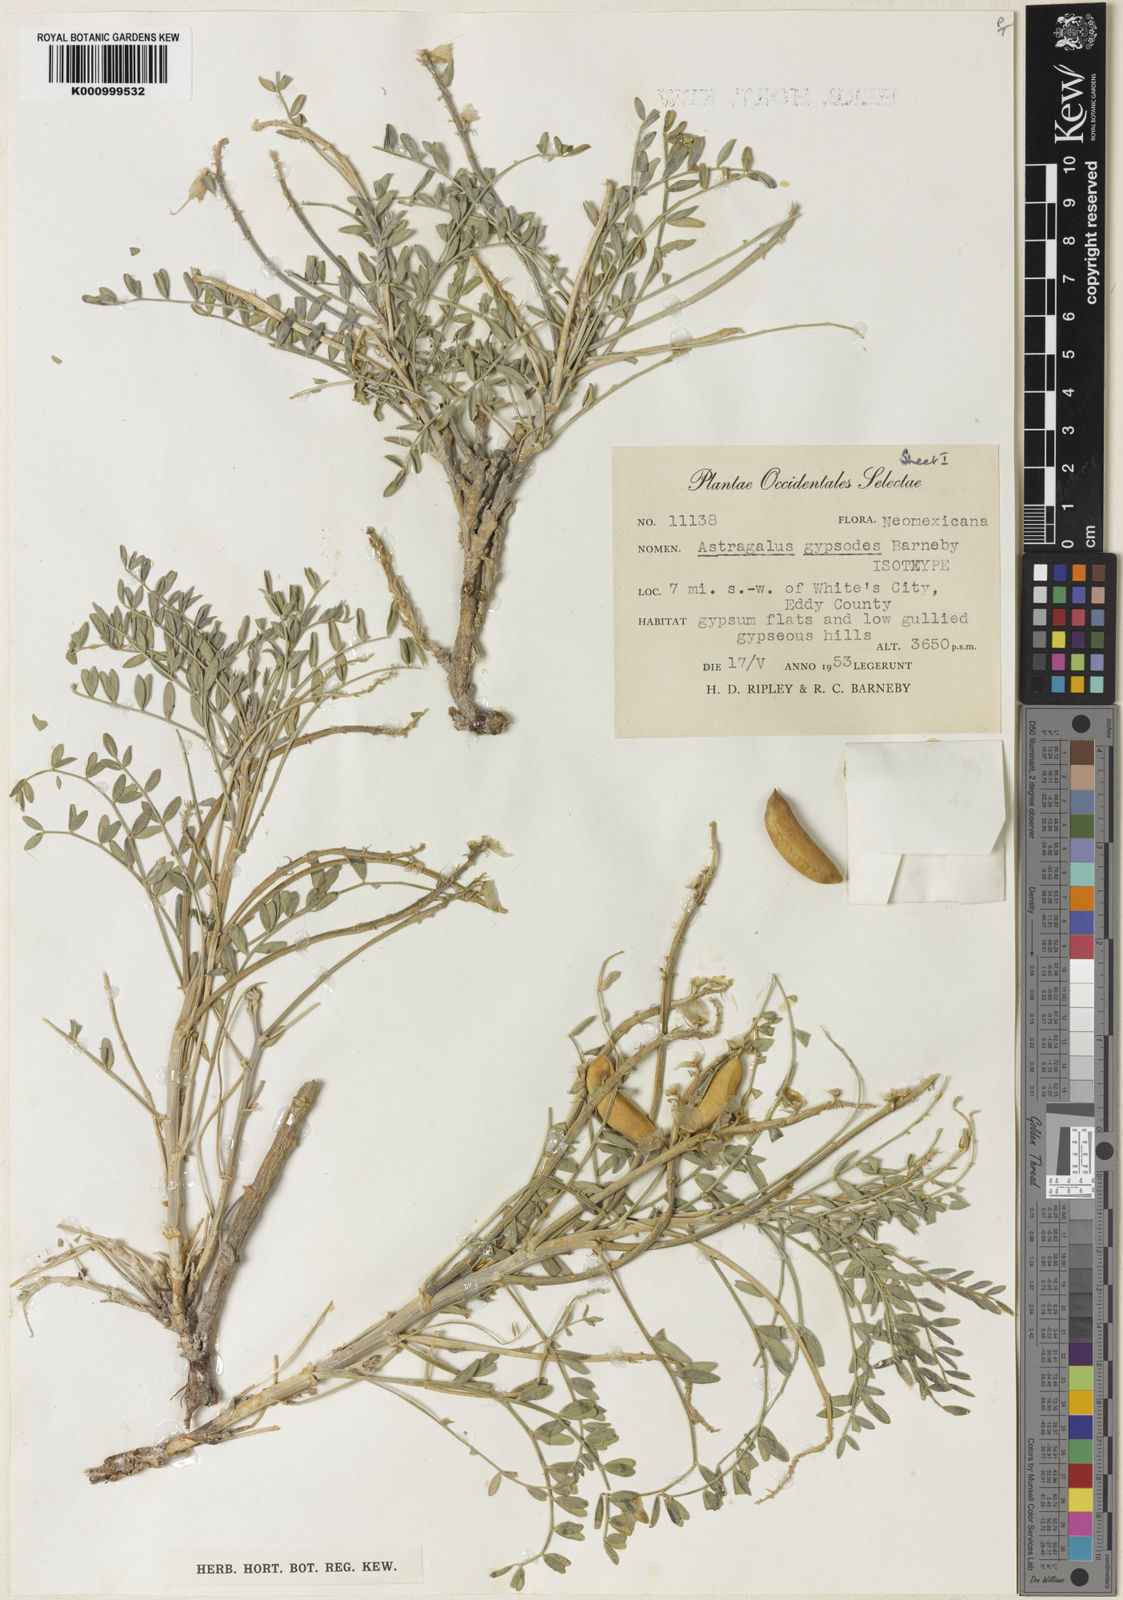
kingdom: Plantae
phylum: Tracheophyta
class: Magnoliopsida
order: Fabales
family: Fabaceae
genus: Astragalus
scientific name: Astragalus gypsodes
